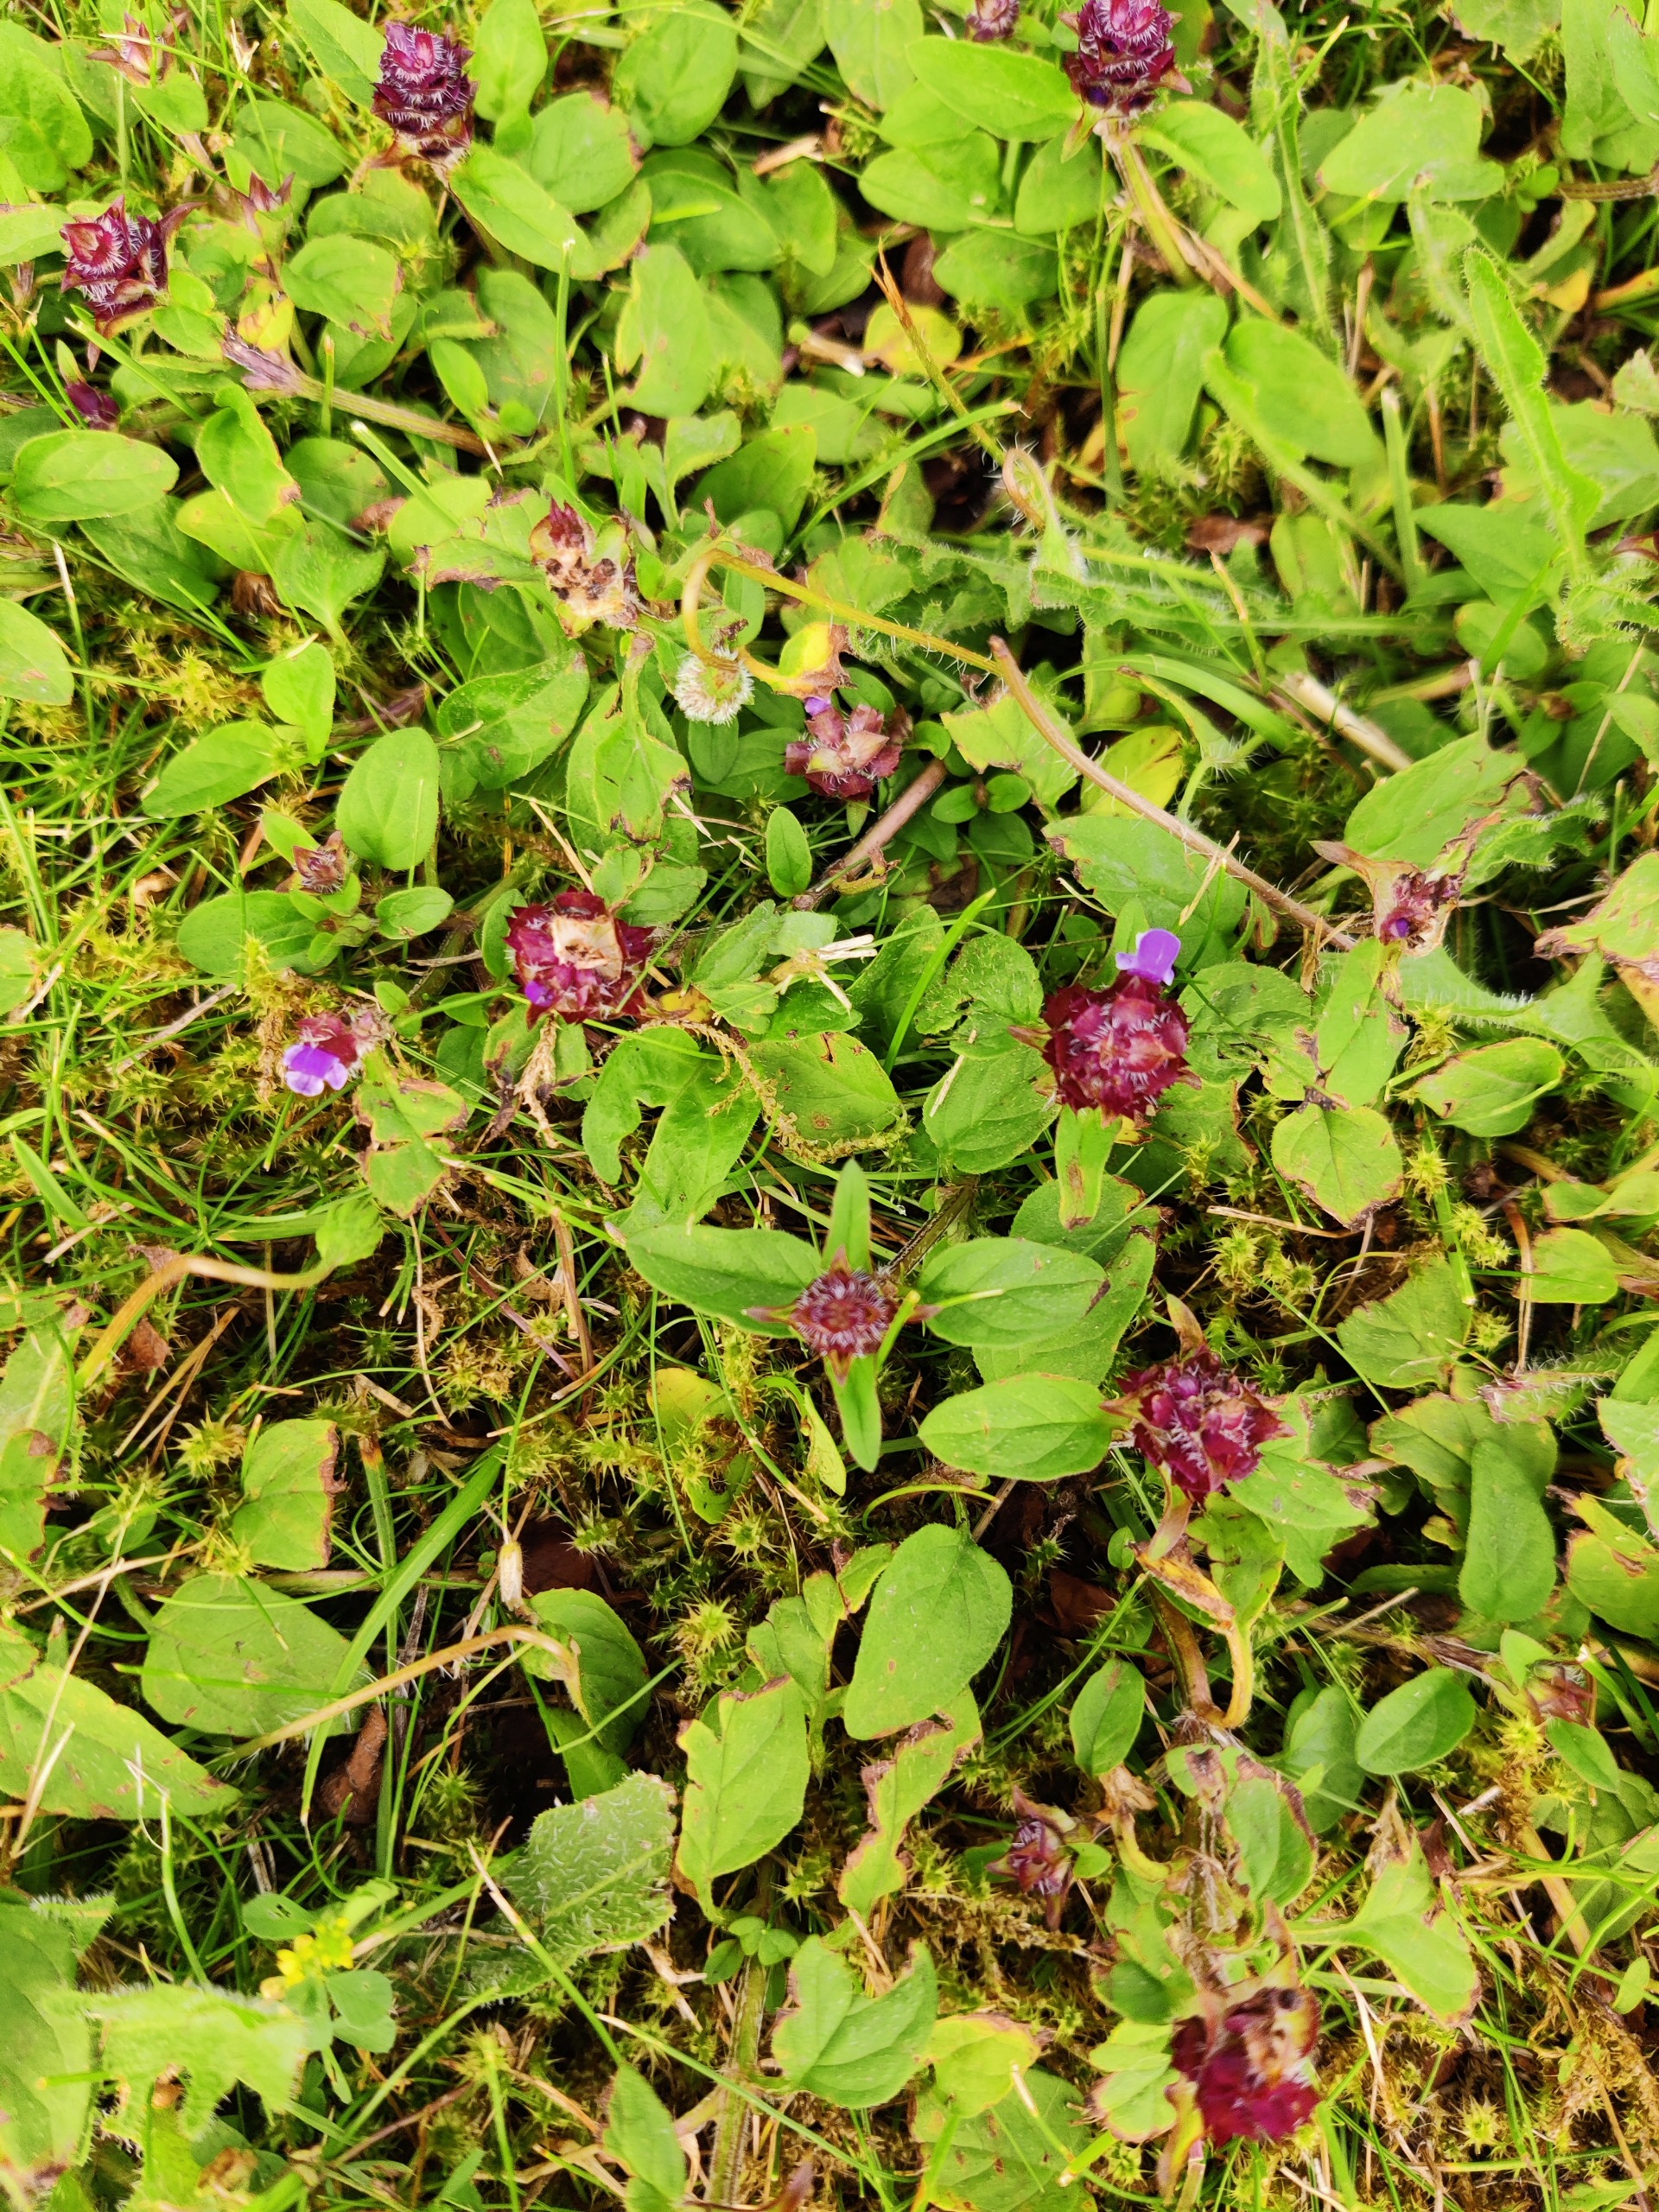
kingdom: Plantae
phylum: Tracheophyta
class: Magnoliopsida
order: Lamiales
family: Lamiaceae
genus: Prunella
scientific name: Prunella vulgaris
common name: Almindelig brunelle
